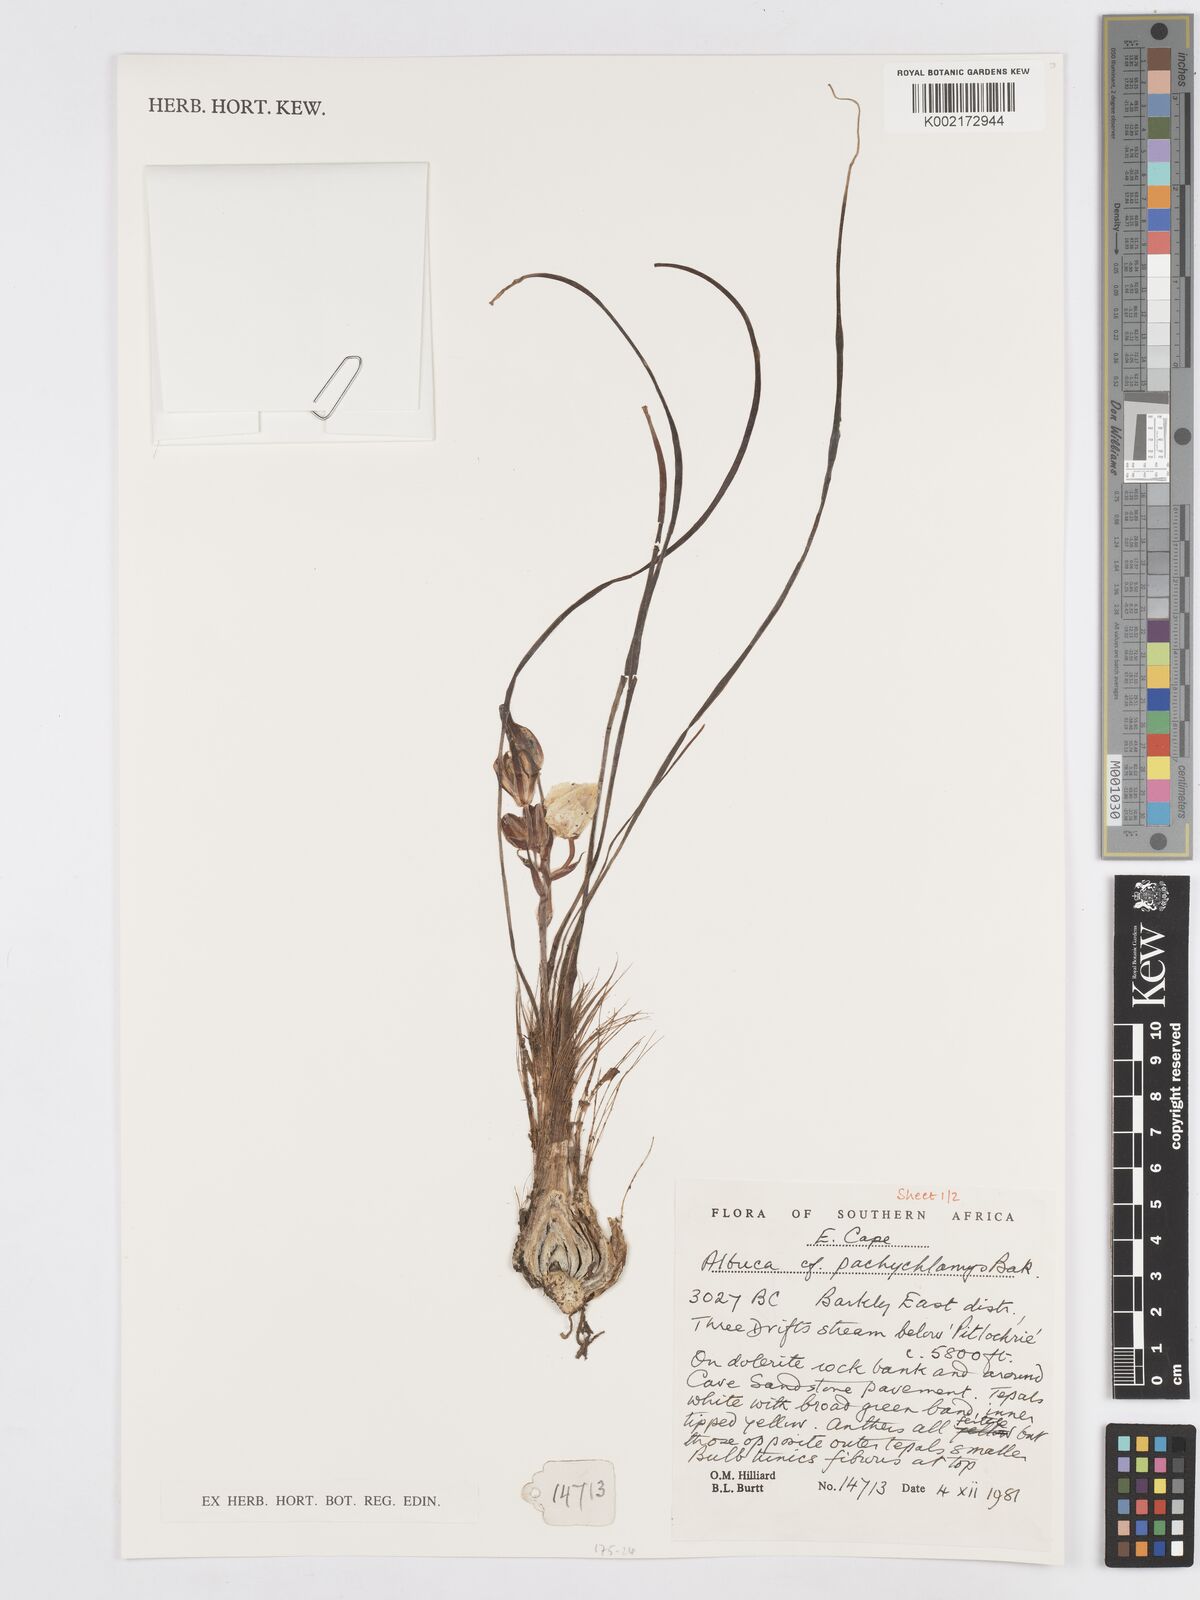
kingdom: Plantae
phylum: Tracheophyta
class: Liliopsida
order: Asparagales
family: Asparagaceae
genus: Albuca
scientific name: Albuca setosa
